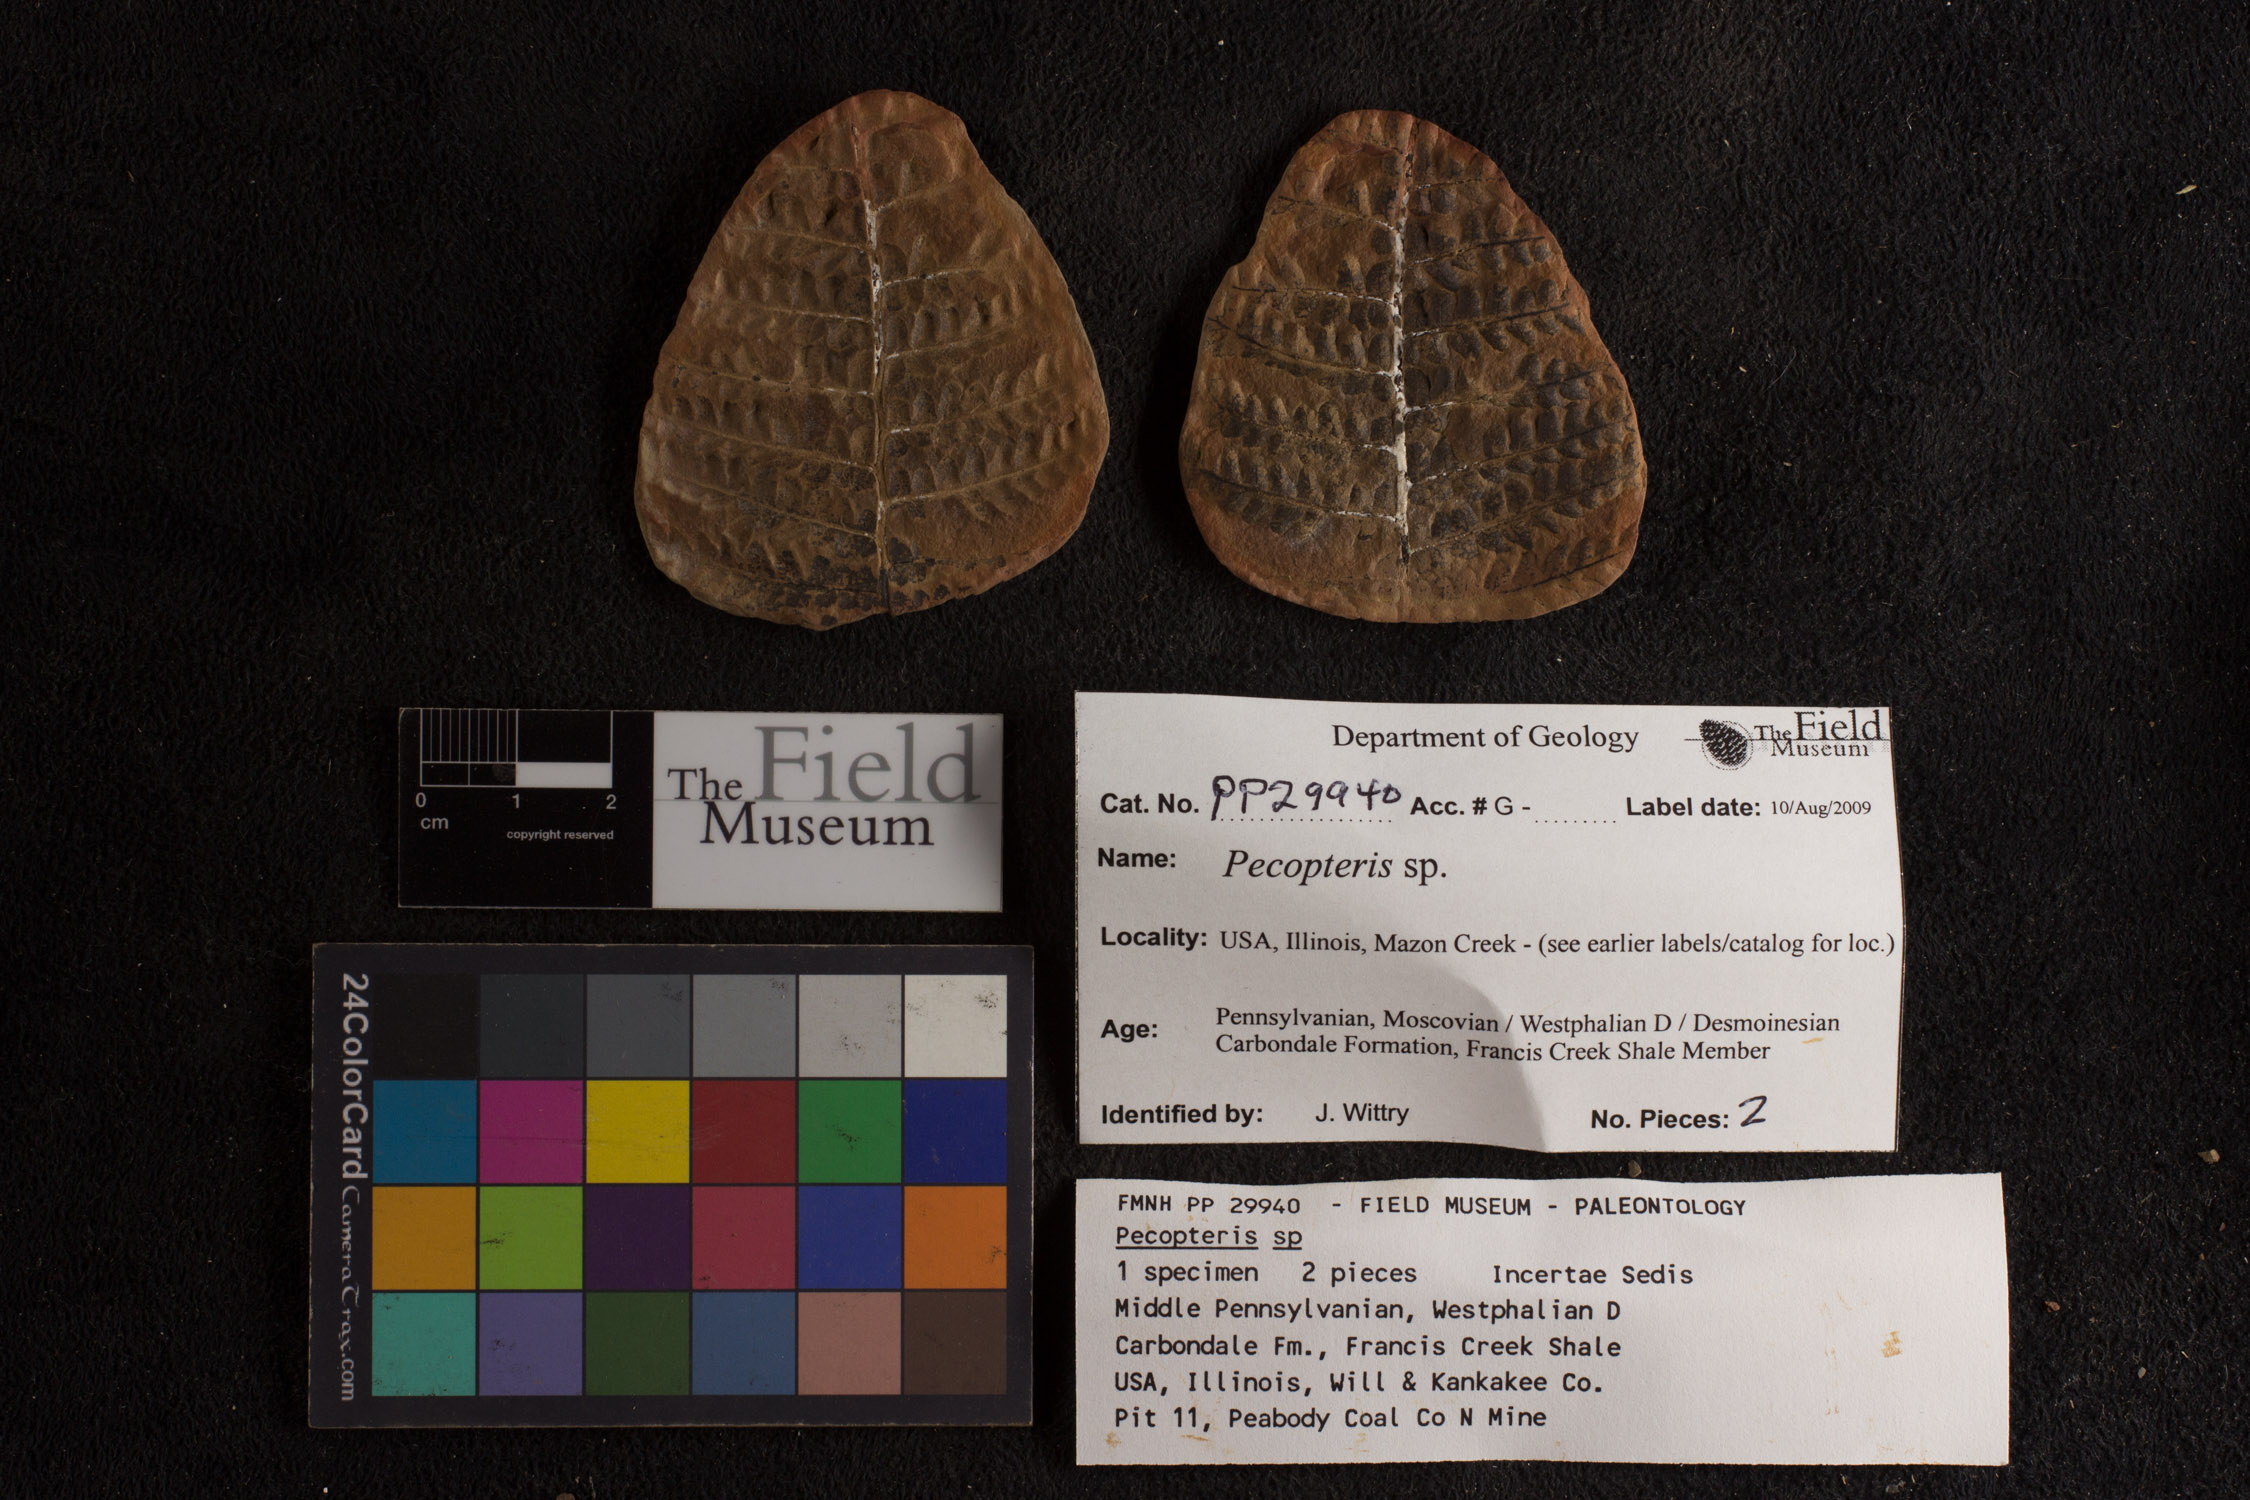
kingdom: Plantae
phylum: Tracheophyta
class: Polypodiopsida
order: Marattiales
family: Asterothecaceae
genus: Pecopteris
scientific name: Pecopteris
